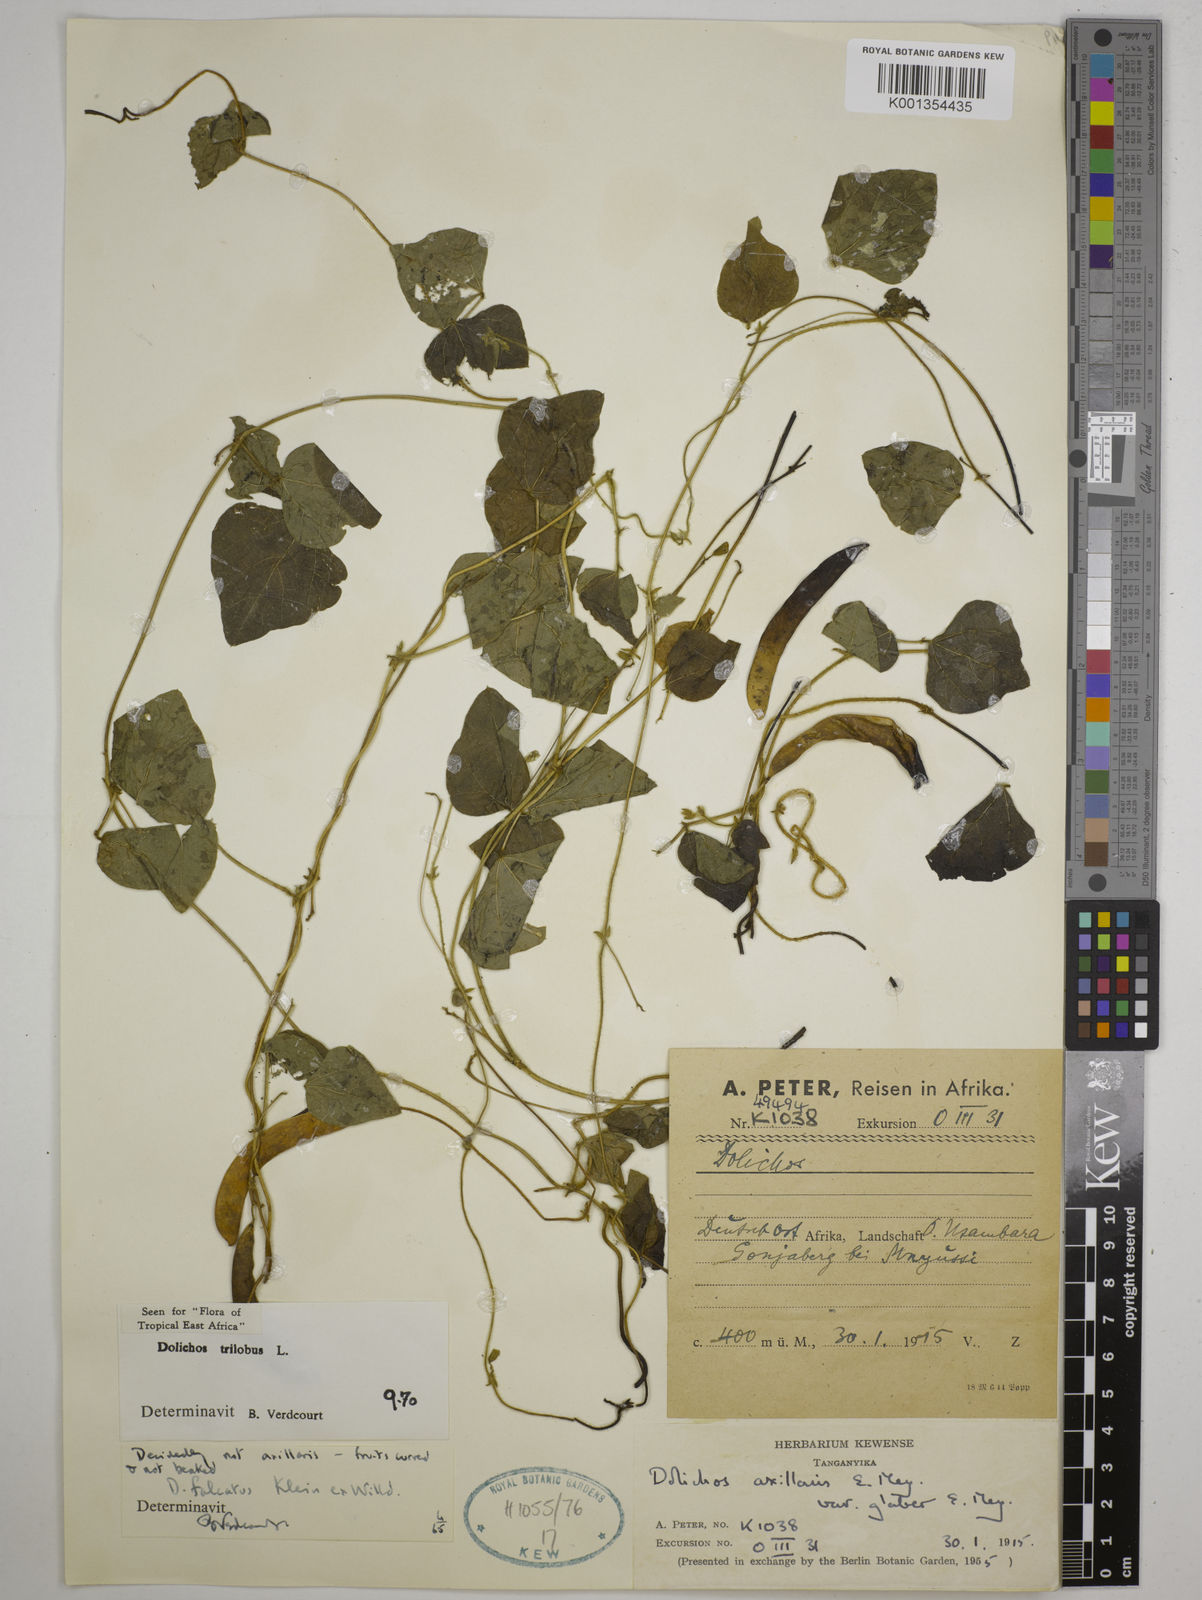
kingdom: Plantae
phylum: Tracheophyta
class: Magnoliopsida
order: Fabales
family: Fabaceae
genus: Dolichos
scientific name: Dolichos
